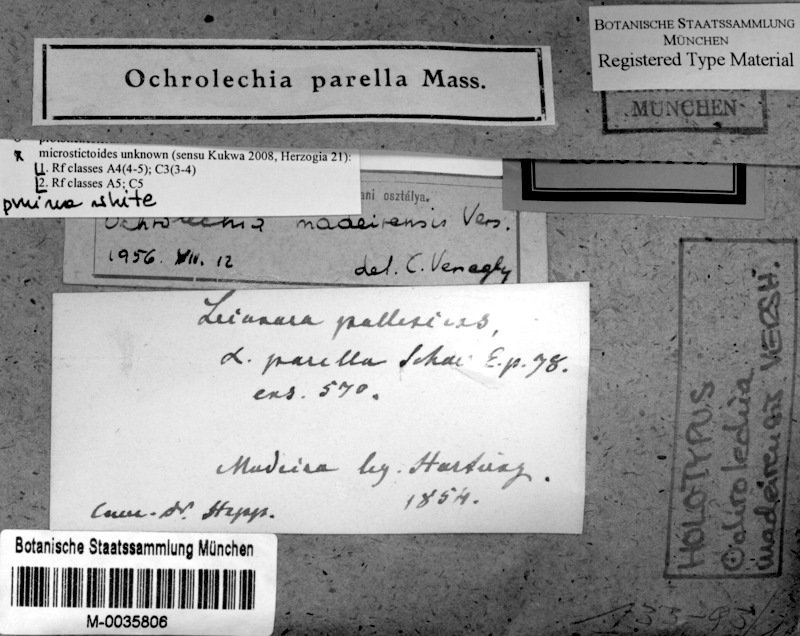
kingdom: Fungi
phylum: Ascomycota
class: Lecanoromycetes
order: Pertusariales
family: Ochrolechiaceae
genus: Ochrolechia
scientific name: Ochrolechia parella
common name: Crab's eye lichen
